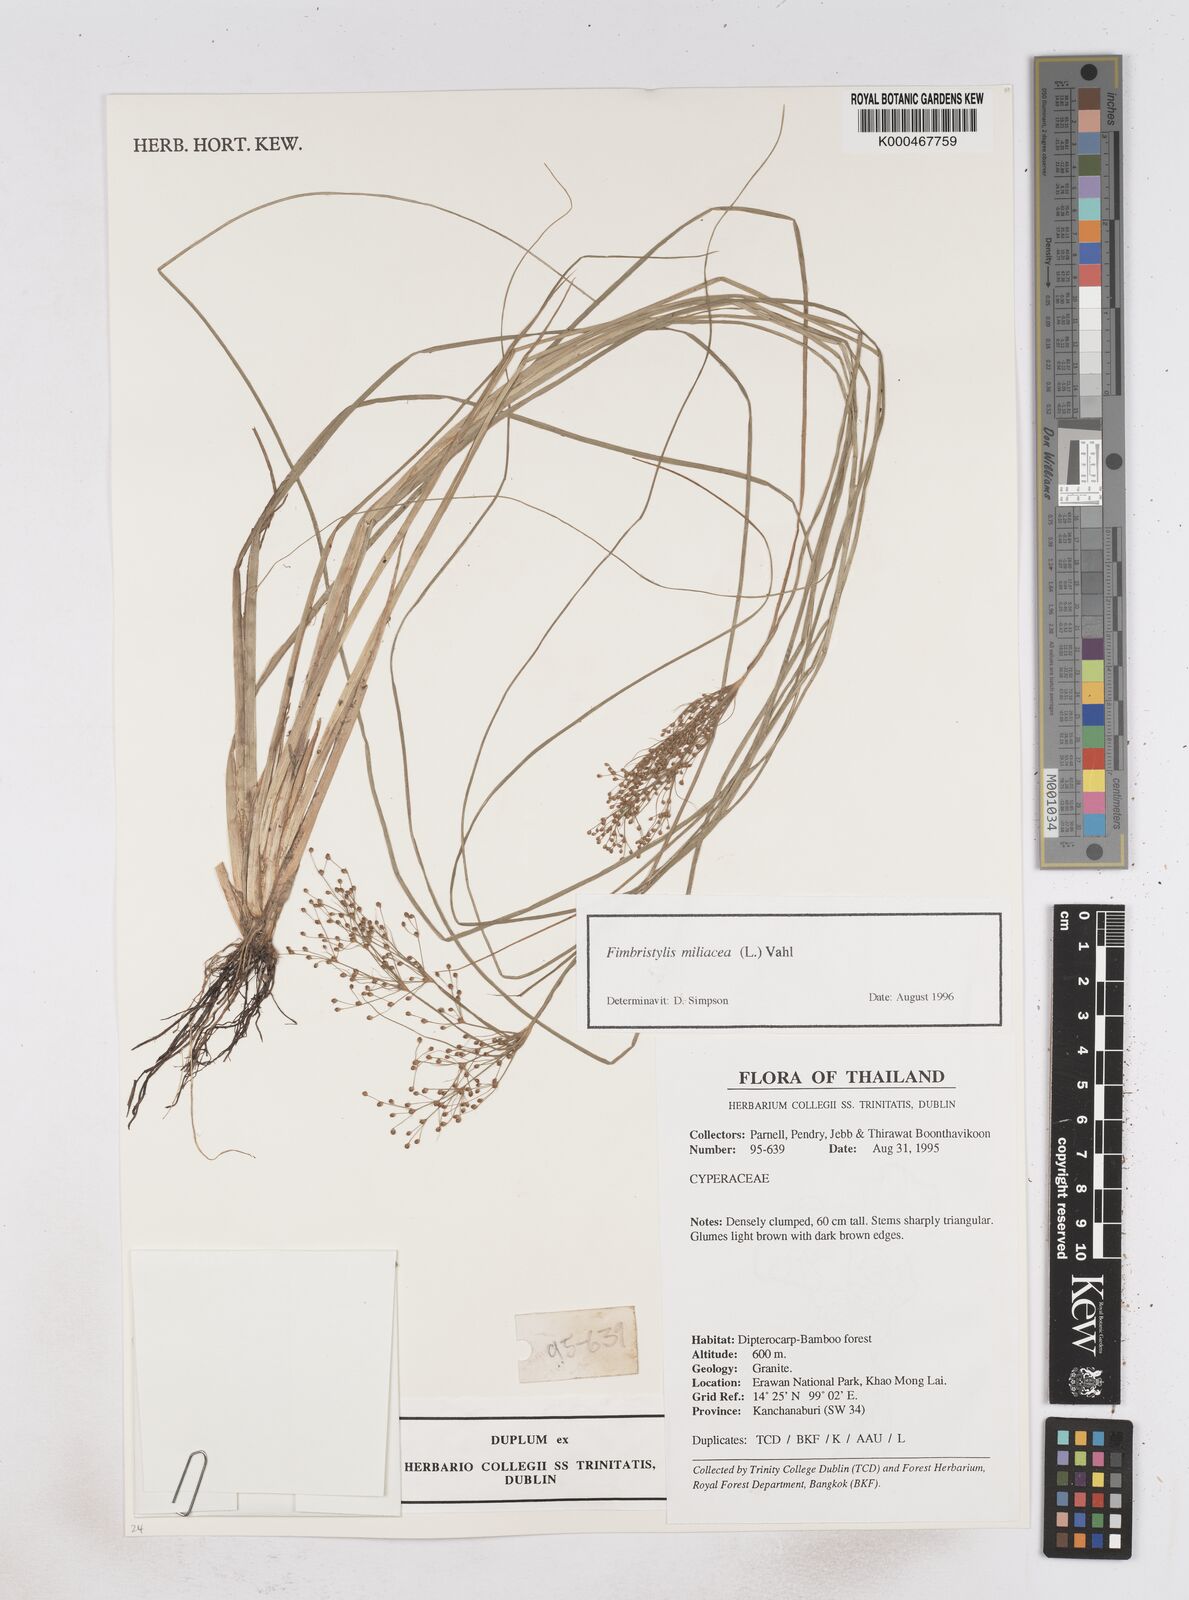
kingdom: Plantae
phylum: Tracheophyta
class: Liliopsida
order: Poales
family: Cyperaceae
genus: Fimbristylis
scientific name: Fimbristylis quinquangularis
